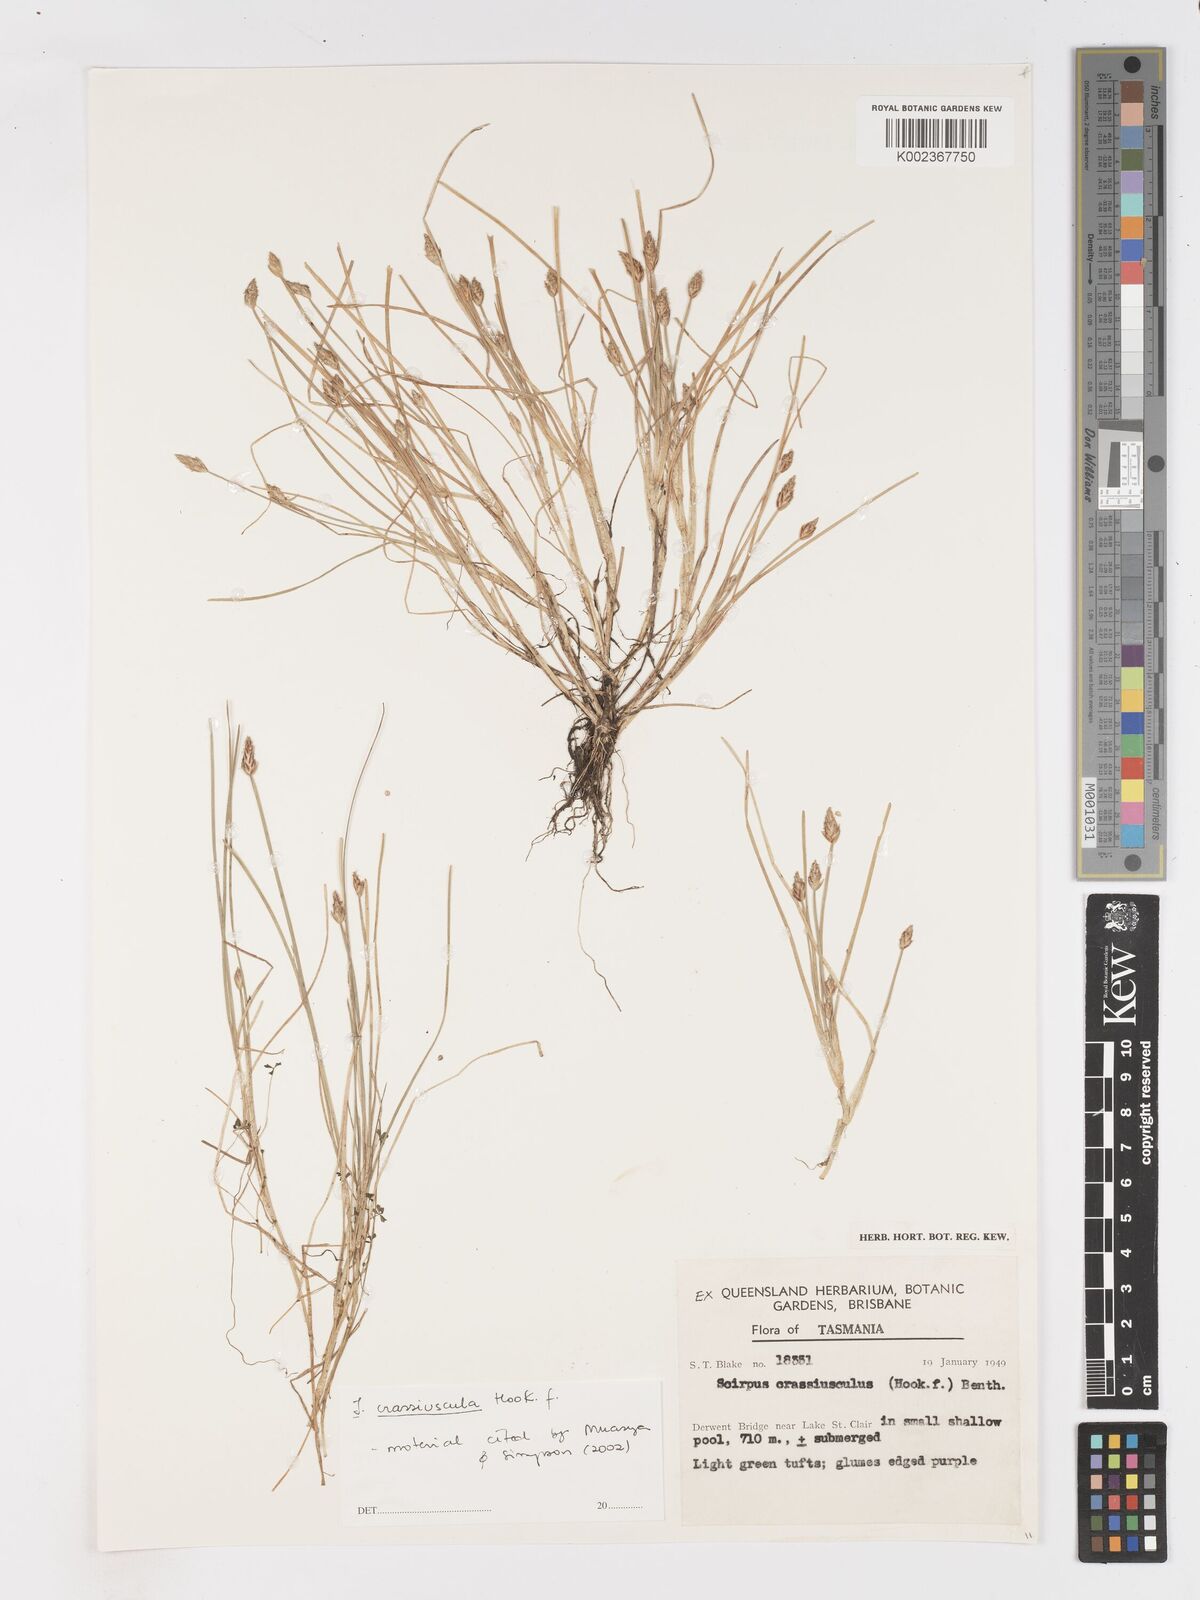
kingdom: Plantae
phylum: Tracheophyta
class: Liliopsida
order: Poales
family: Cyperaceae
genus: Isolepis
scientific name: Isolepis crassiuscula
